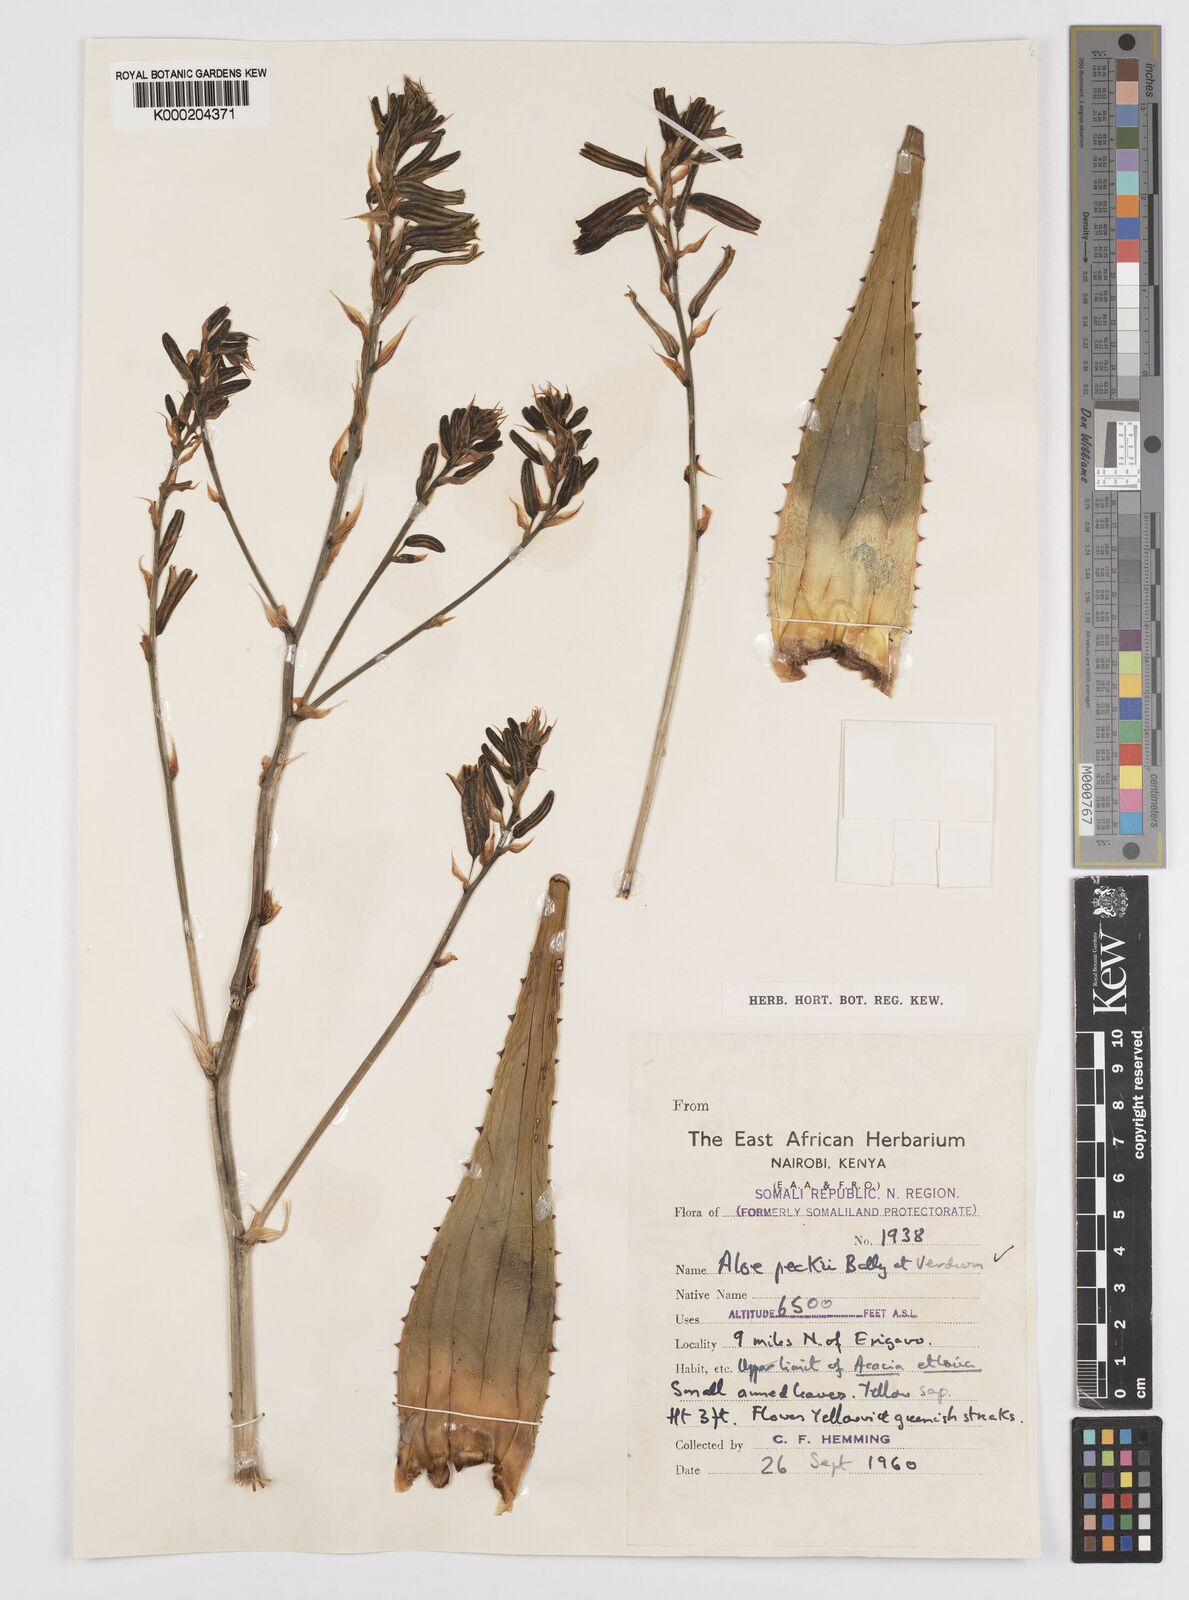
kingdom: Plantae
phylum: Tracheophyta
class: Liliopsida
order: Asparagales
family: Asphodelaceae
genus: Aloe
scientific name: Aloe peckii
